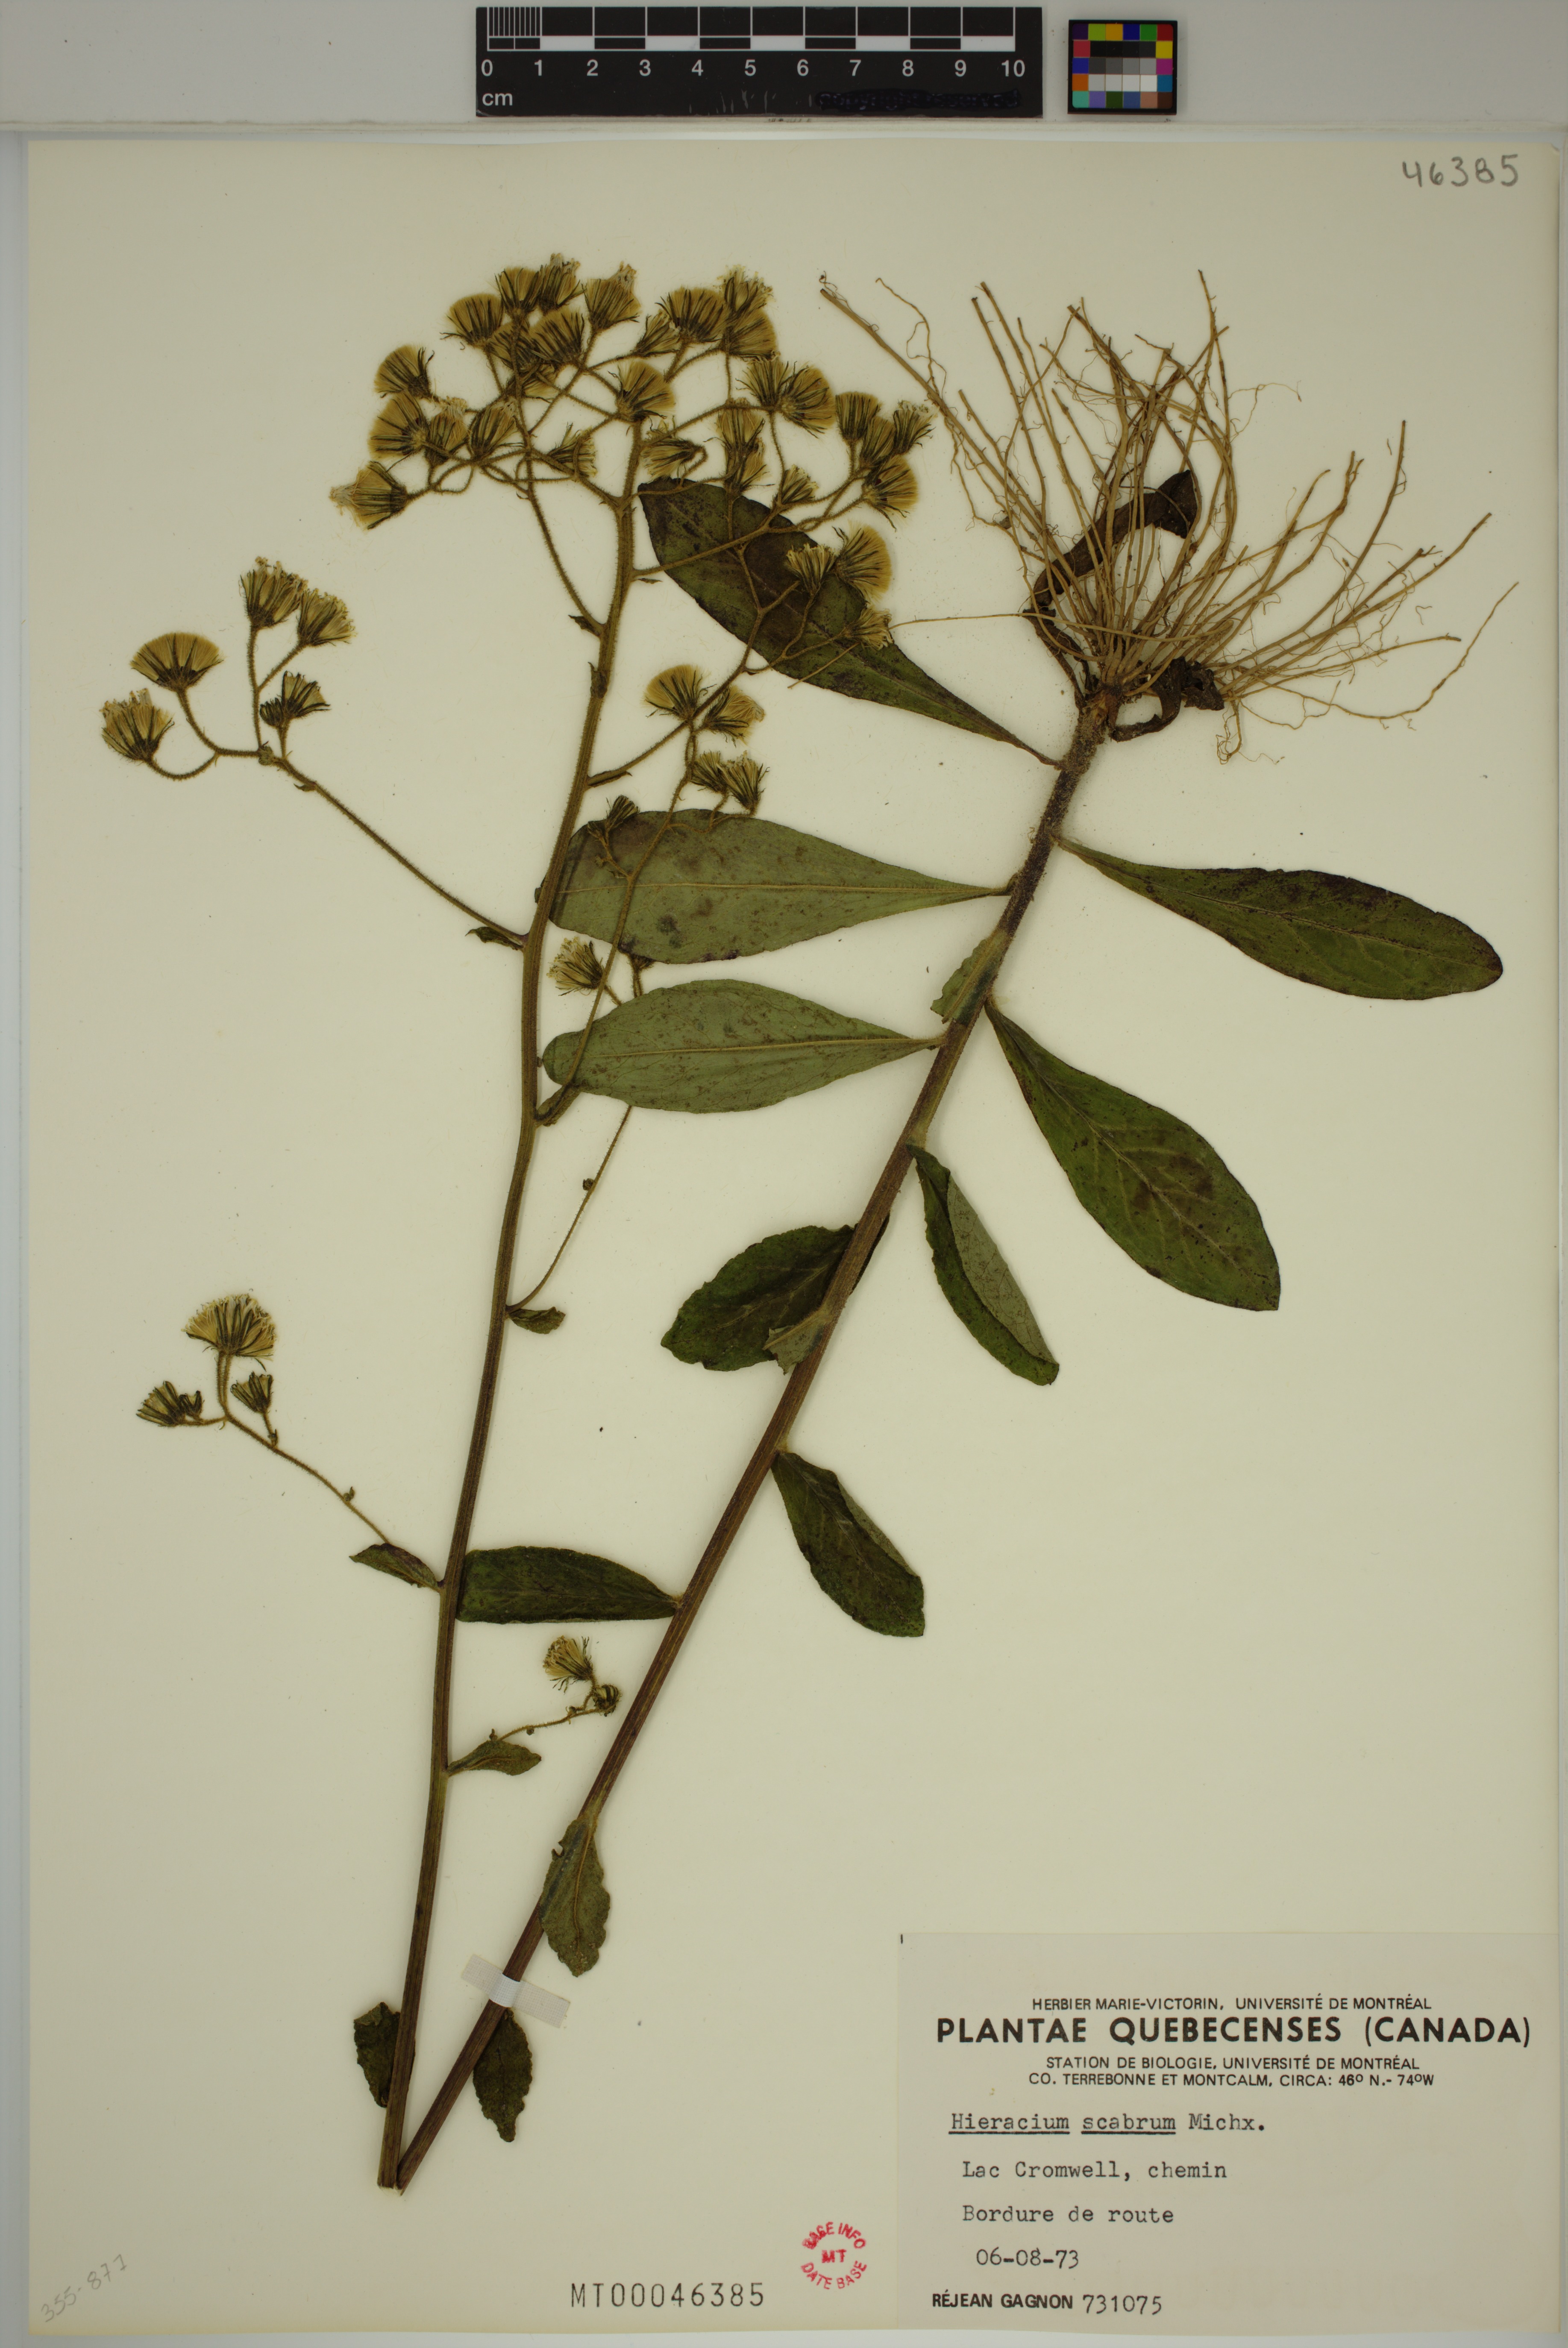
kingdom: Plantae
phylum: Tracheophyta
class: Magnoliopsida
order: Asterales
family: Asteraceae
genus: Hieracium
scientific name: Hieracium scabrum
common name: Rough hawkweed
